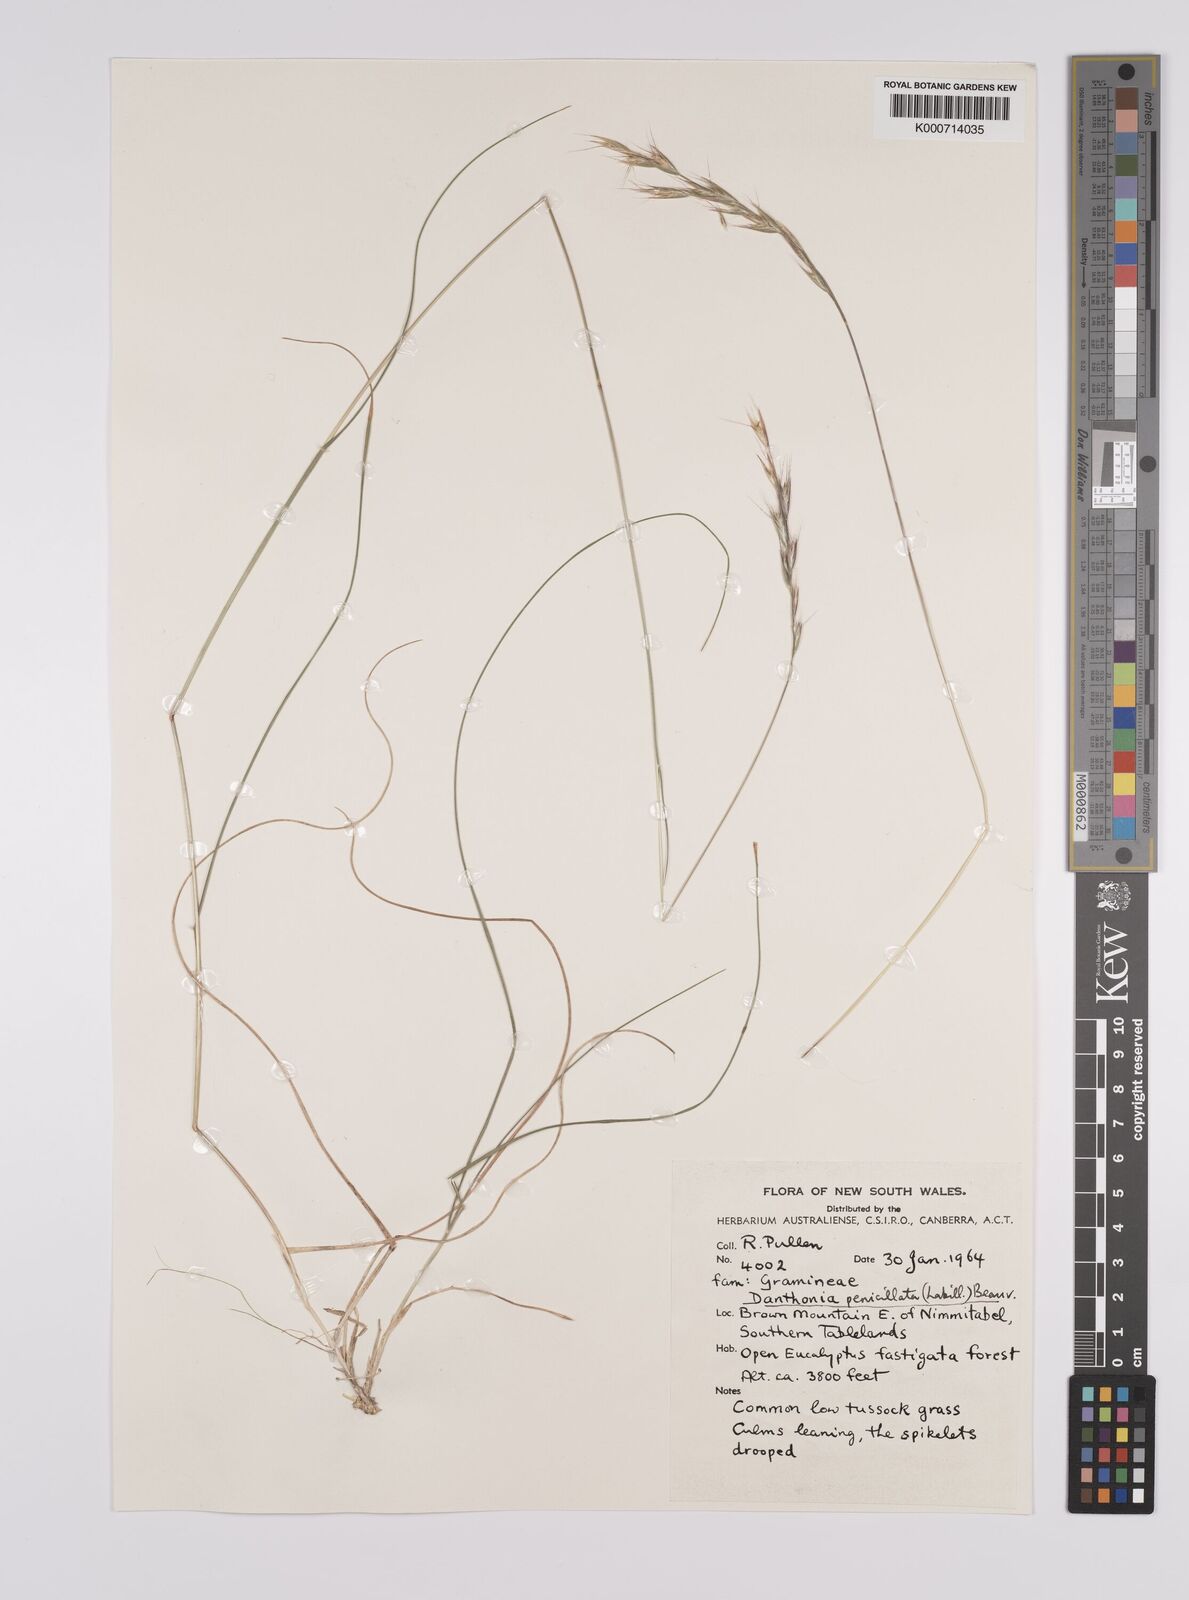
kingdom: Plantae
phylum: Tracheophyta
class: Liliopsida
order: Poales
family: Poaceae
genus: Rytidosperma
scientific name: Rytidosperma penicillatum
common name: Hairy wallaby grass
